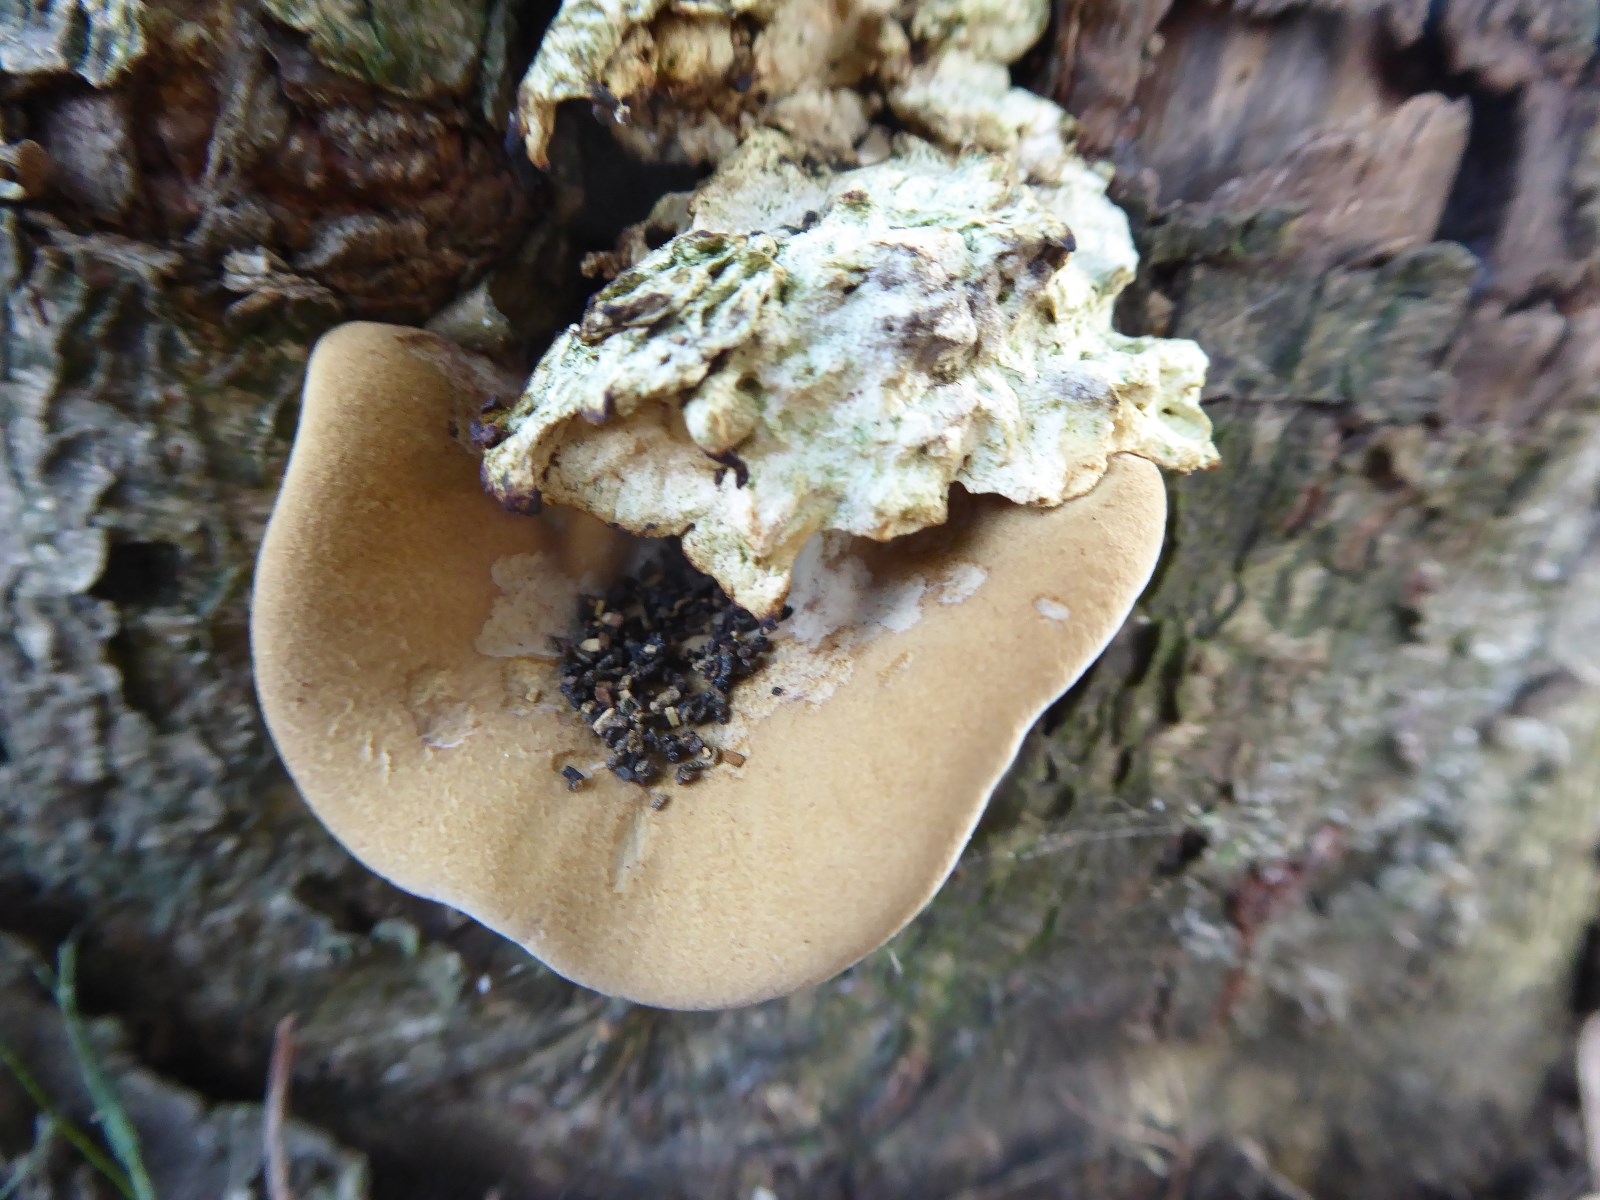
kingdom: Fungi
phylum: Basidiomycota
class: Agaricomycetes
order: Polyporales
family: Polyporaceae
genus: Cerioporus
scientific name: Cerioporus varius
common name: foranderlig stilkporesvamp
